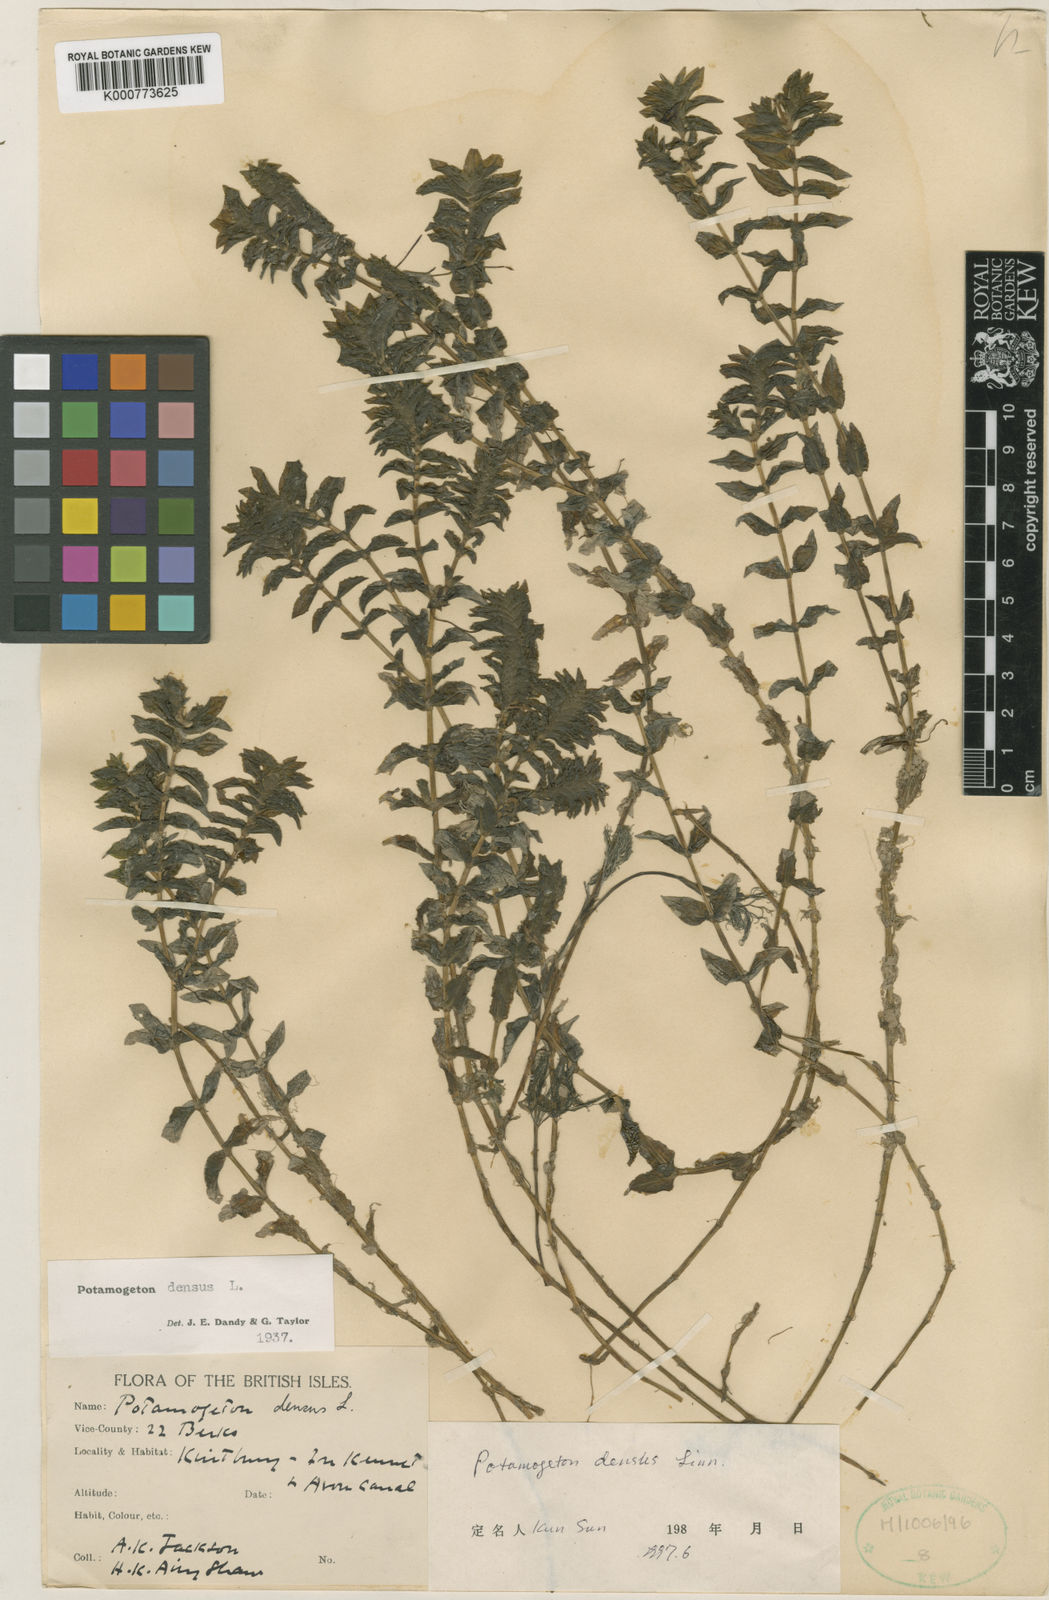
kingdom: Plantae
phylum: Tracheophyta
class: Liliopsida
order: Alismatales
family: Potamogetonaceae
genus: Groenlandia
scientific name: Groenlandia densa
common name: Opposite-leaved pondweed
